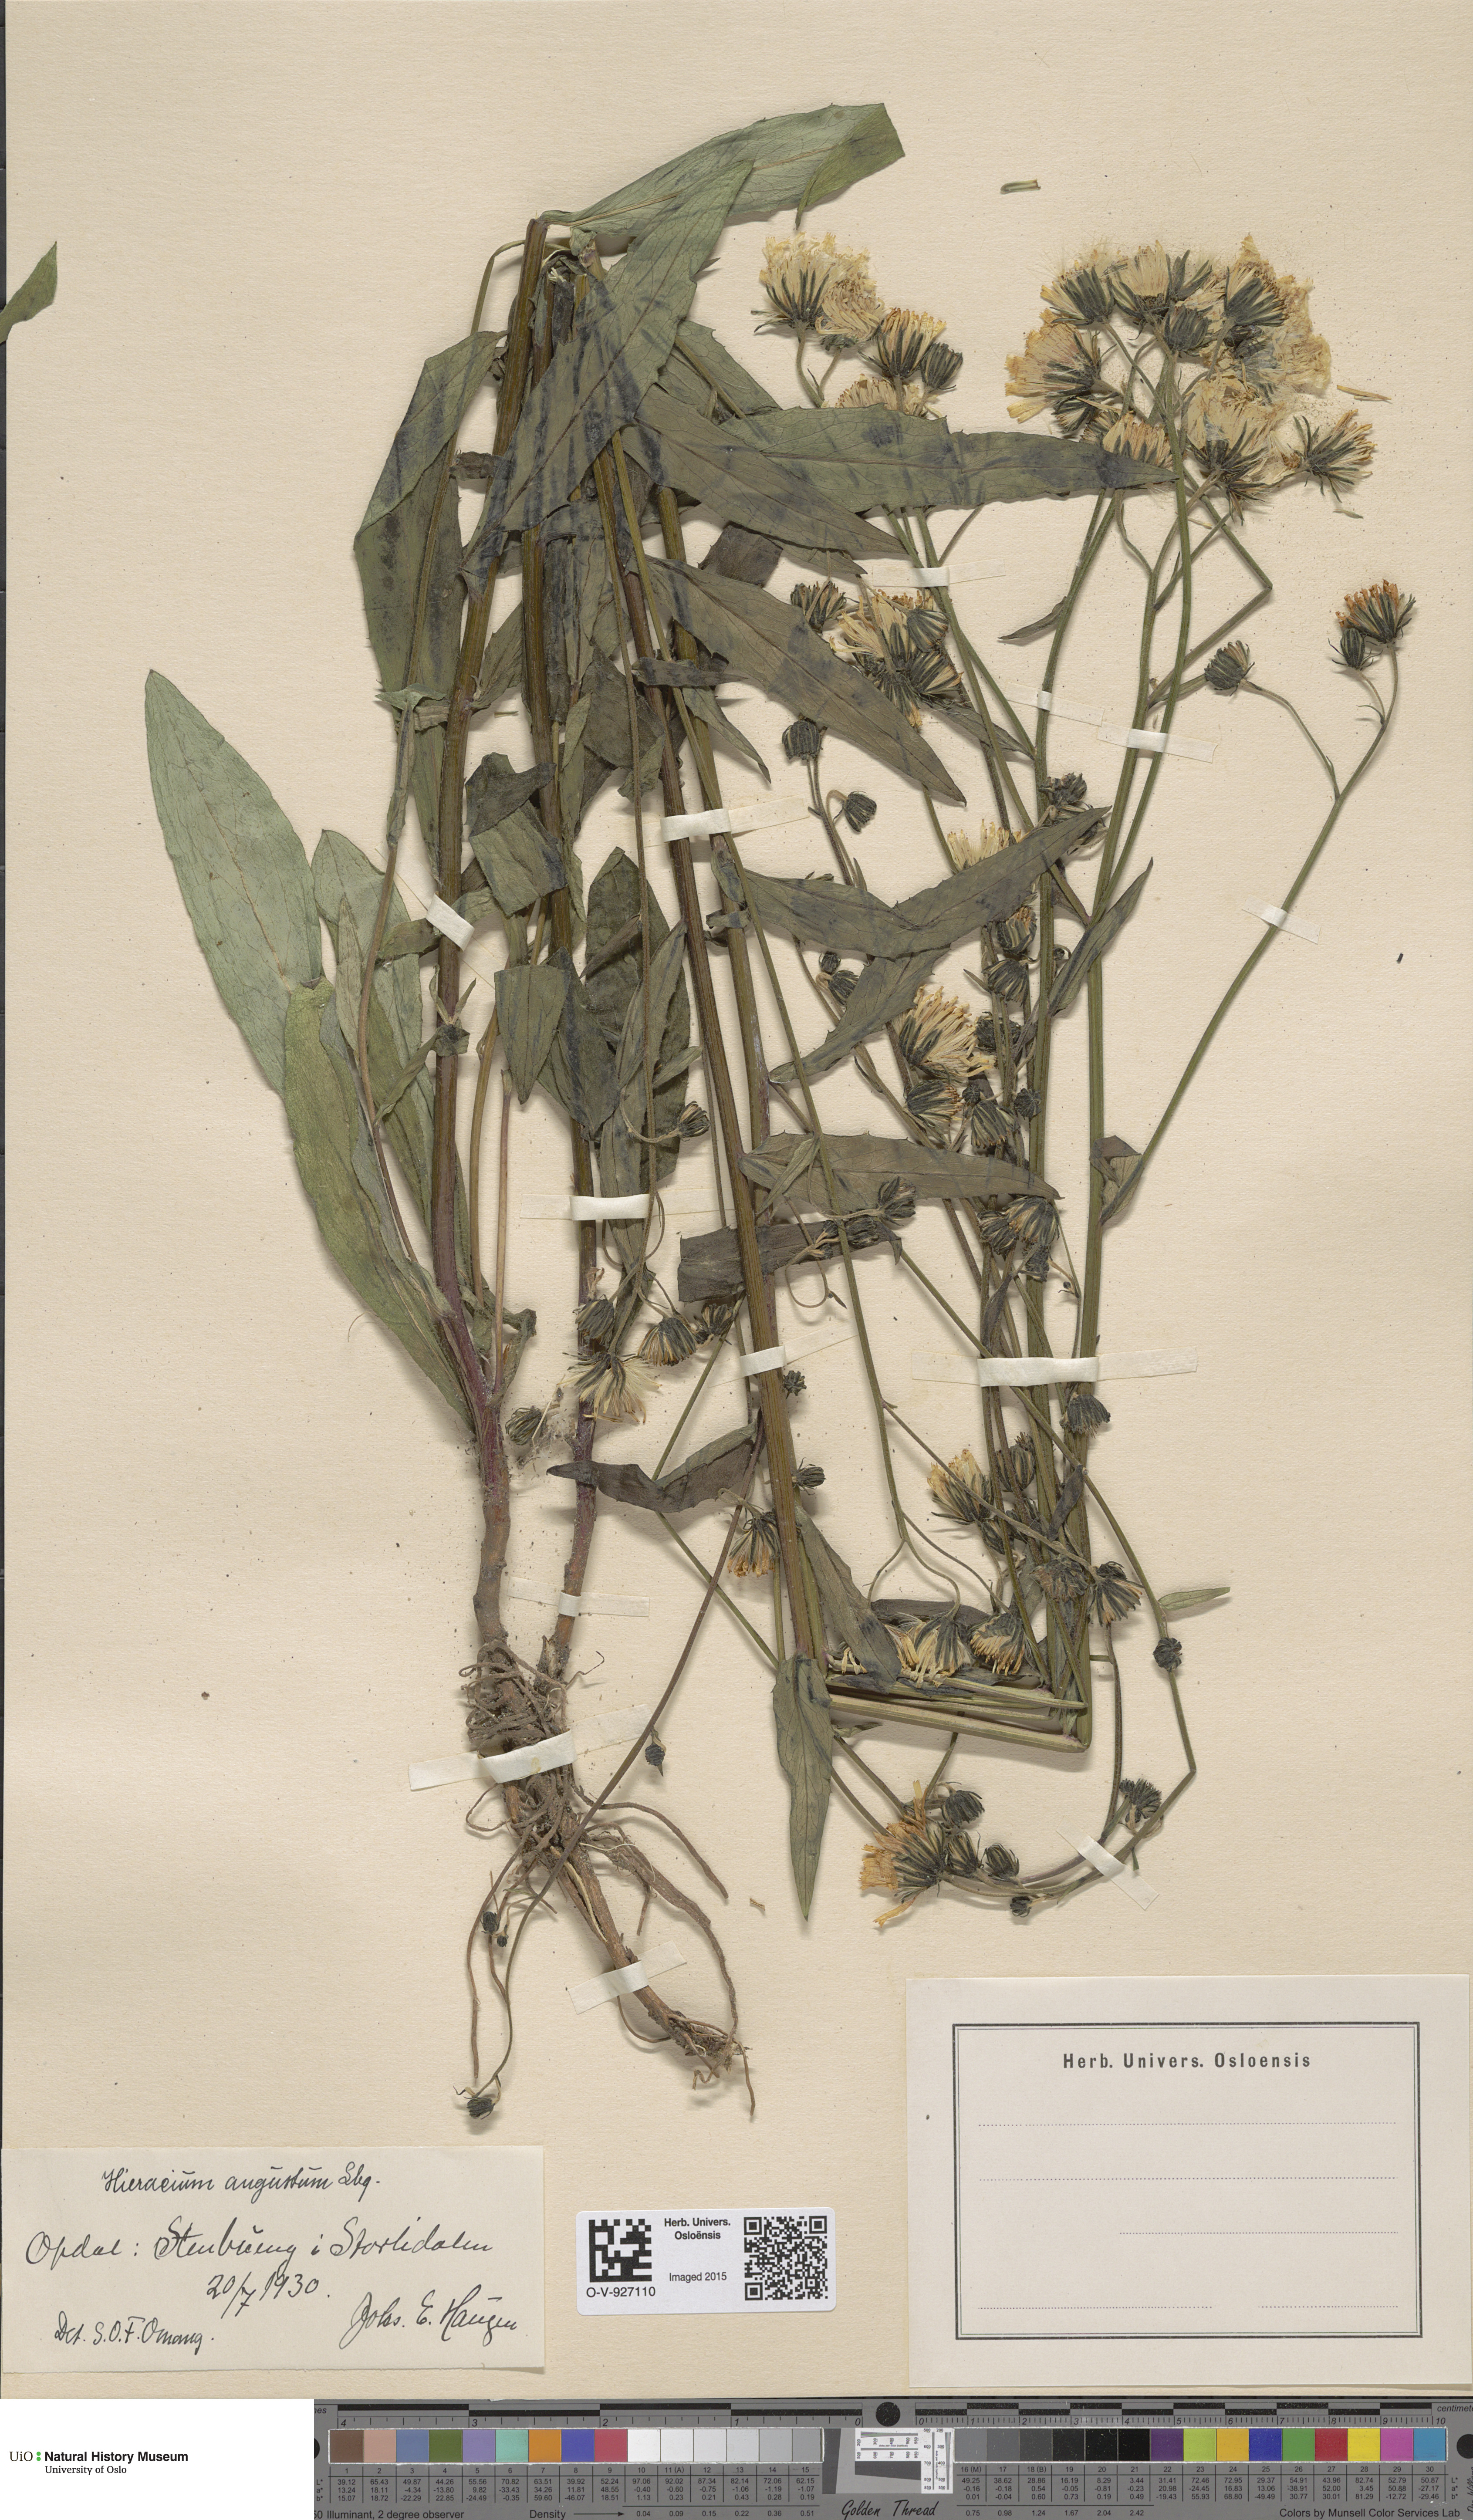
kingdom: Plantae
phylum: Tracheophyta
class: Magnoliopsida
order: Asterales
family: Asteraceae
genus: Hieracium
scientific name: Hieracium angustum
